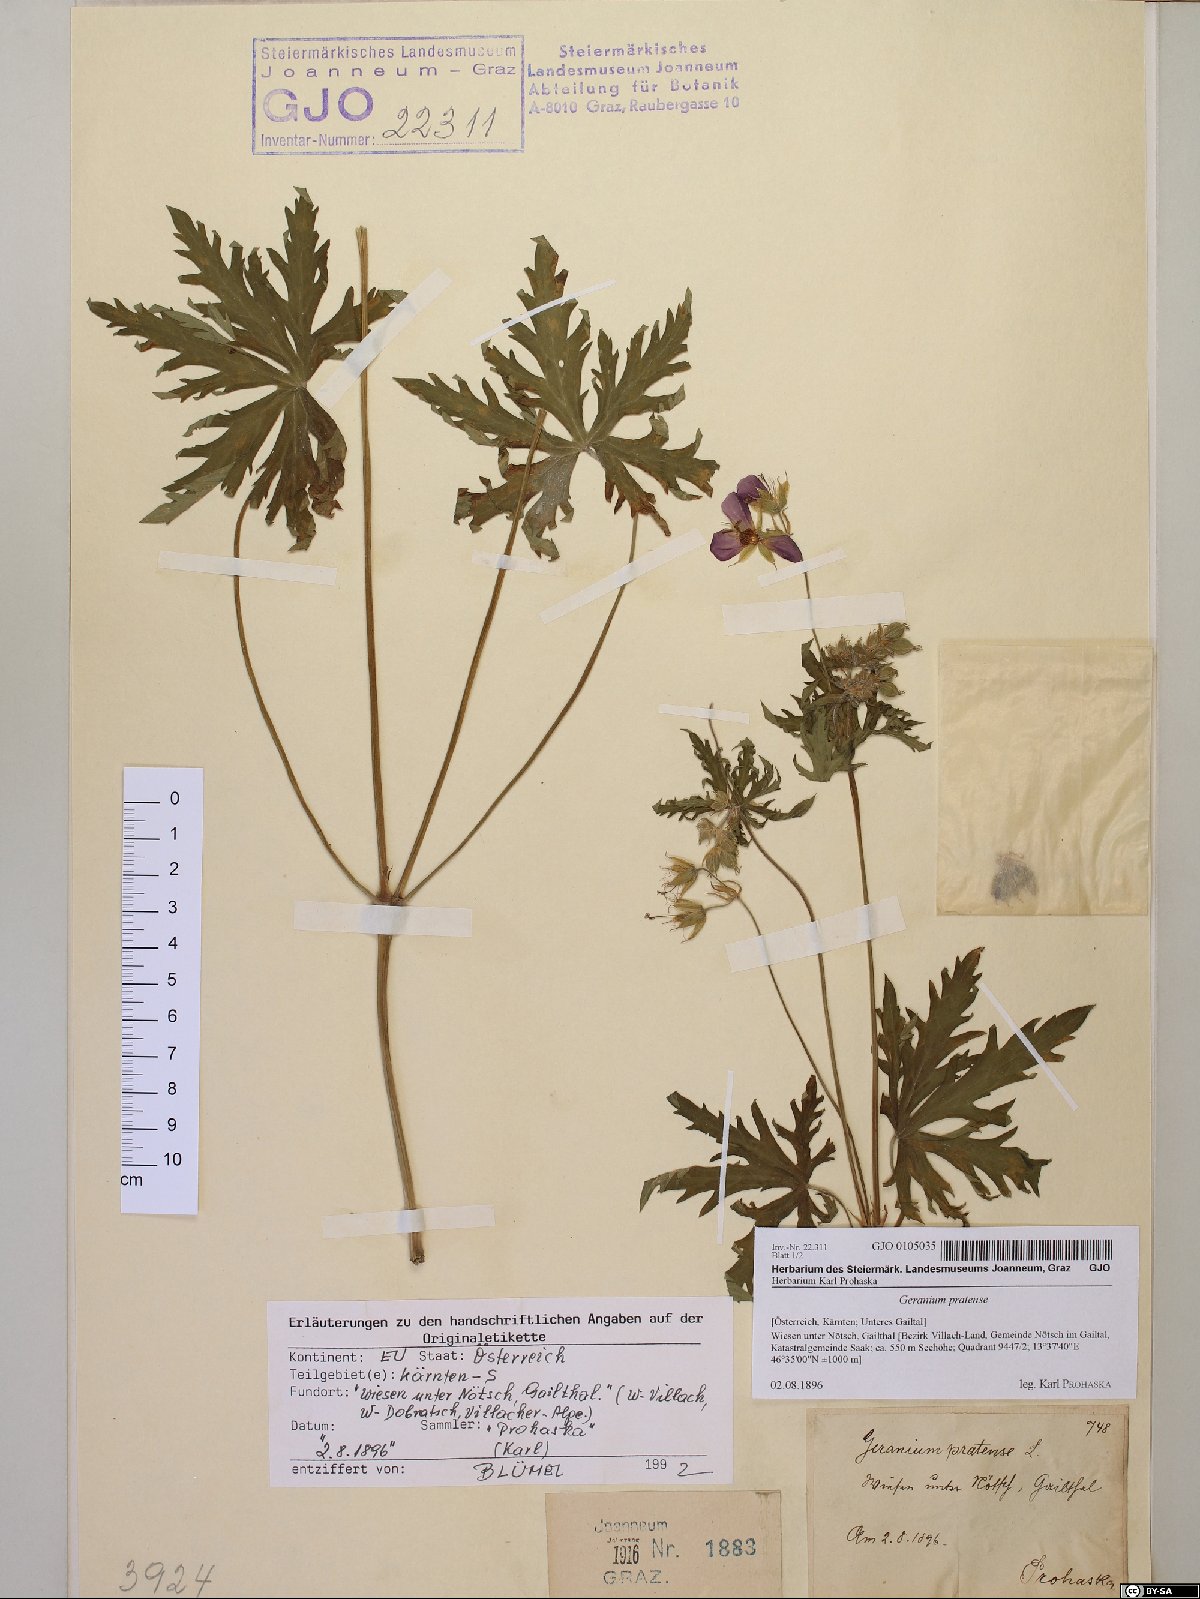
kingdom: Plantae
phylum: Tracheophyta
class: Magnoliopsida
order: Geraniales
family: Geraniaceae
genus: Geranium
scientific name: Geranium pratense
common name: Meadow crane's-bill
